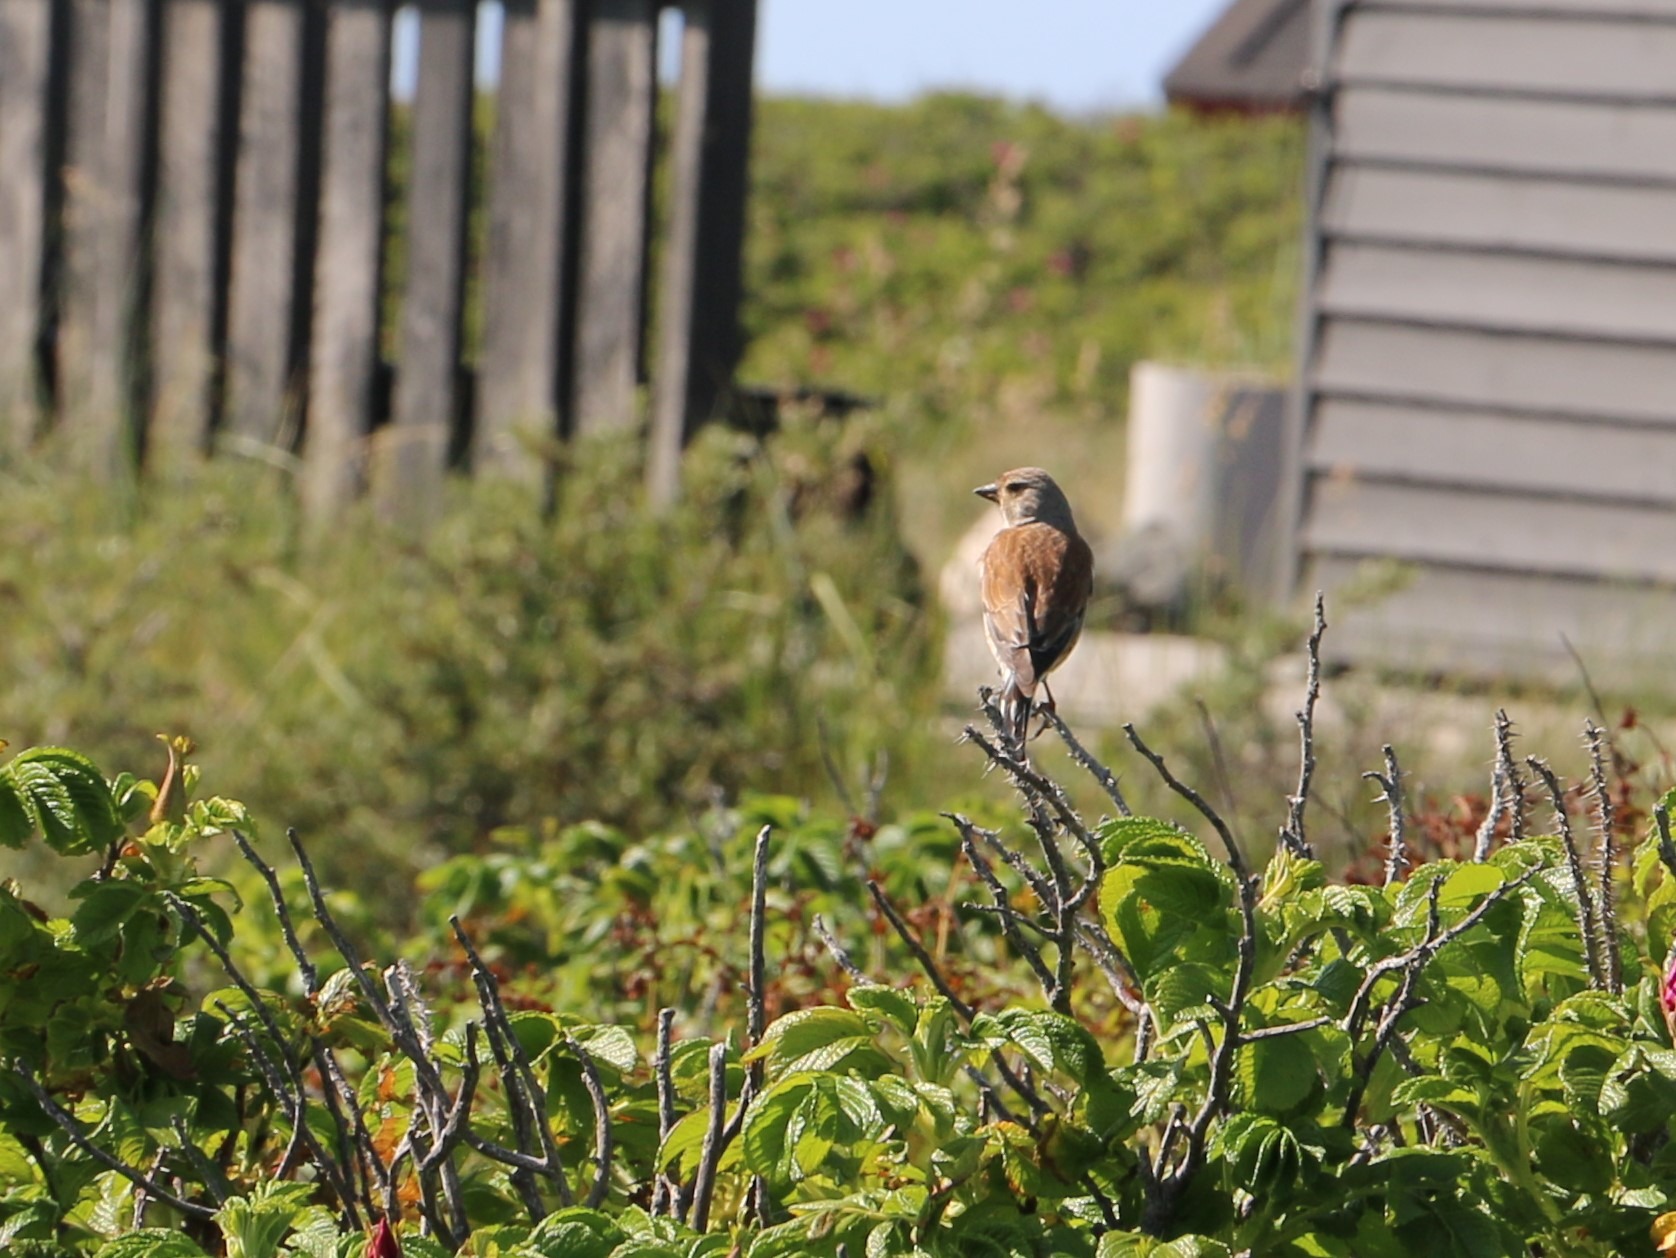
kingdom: Animalia
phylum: Chordata
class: Aves
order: Passeriformes
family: Fringillidae
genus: Linaria
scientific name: Linaria cannabina
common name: Tornirisk
